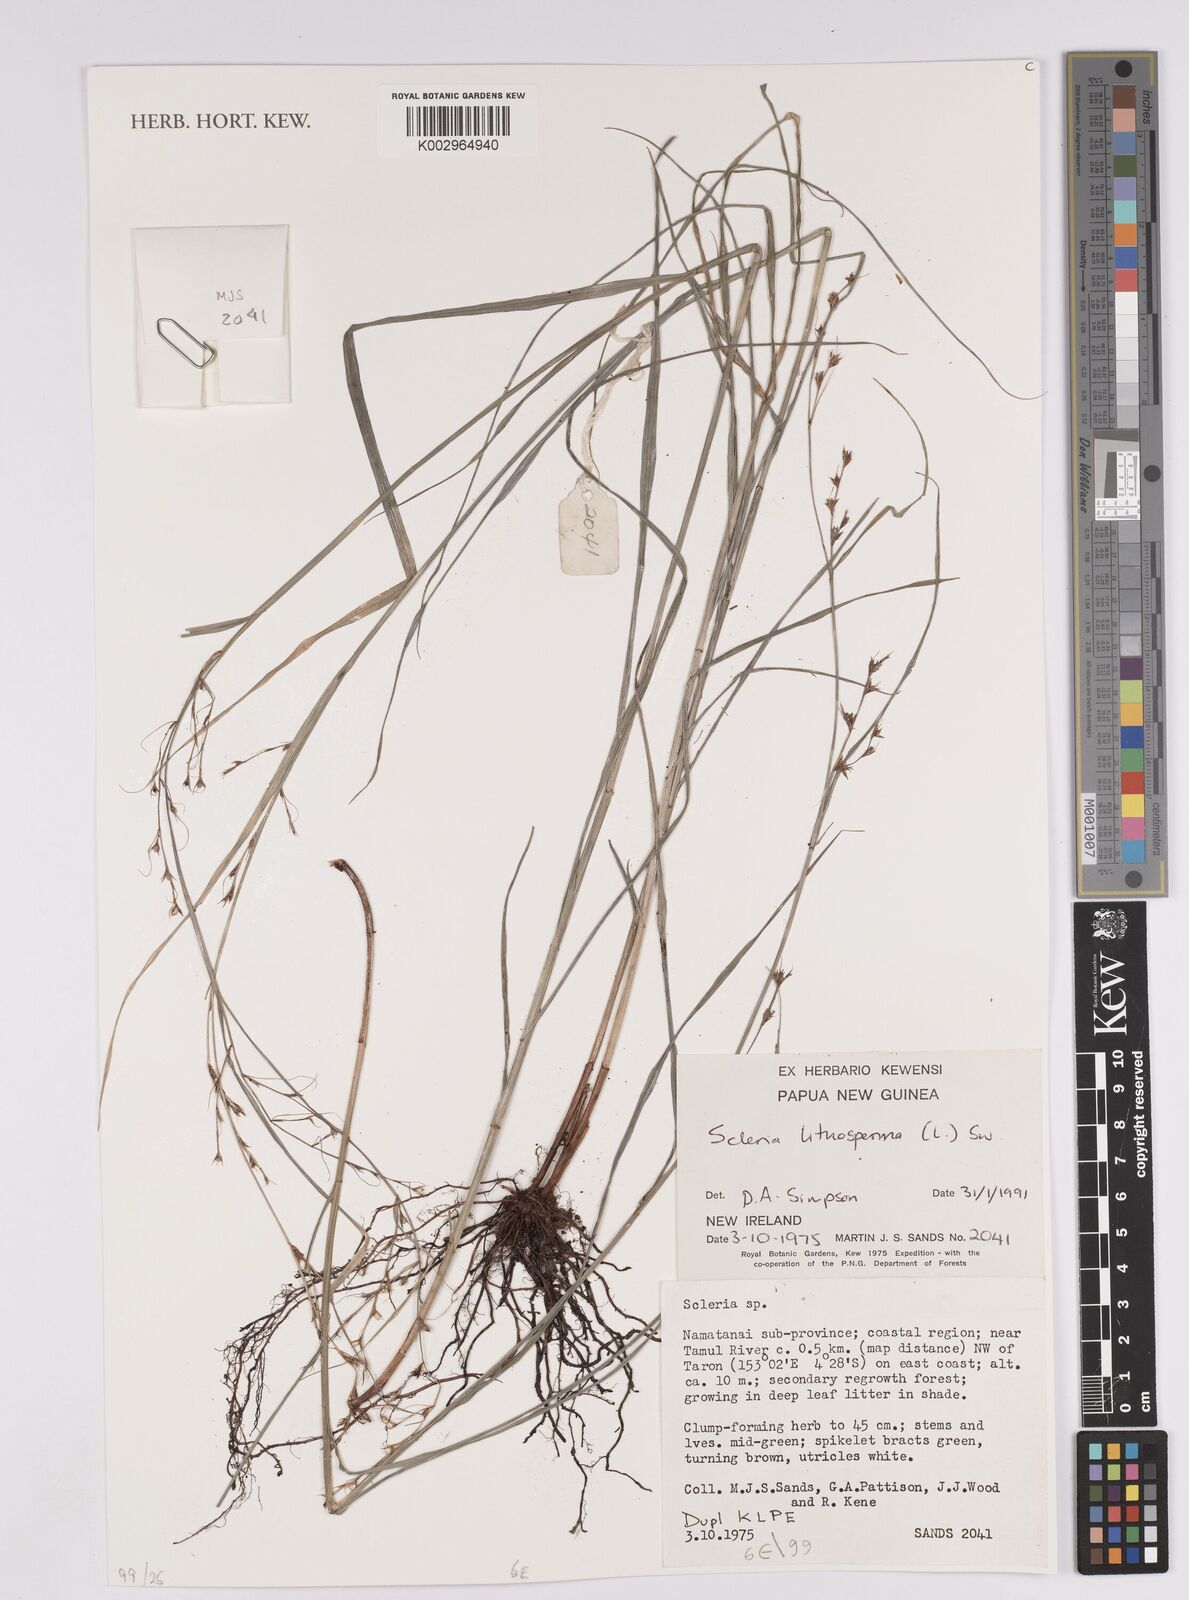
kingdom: Plantae
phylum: Tracheophyta
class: Liliopsida
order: Poales
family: Cyperaceae
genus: Scleria
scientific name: Scleria lithosperma
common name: Florida keys nut-rush
